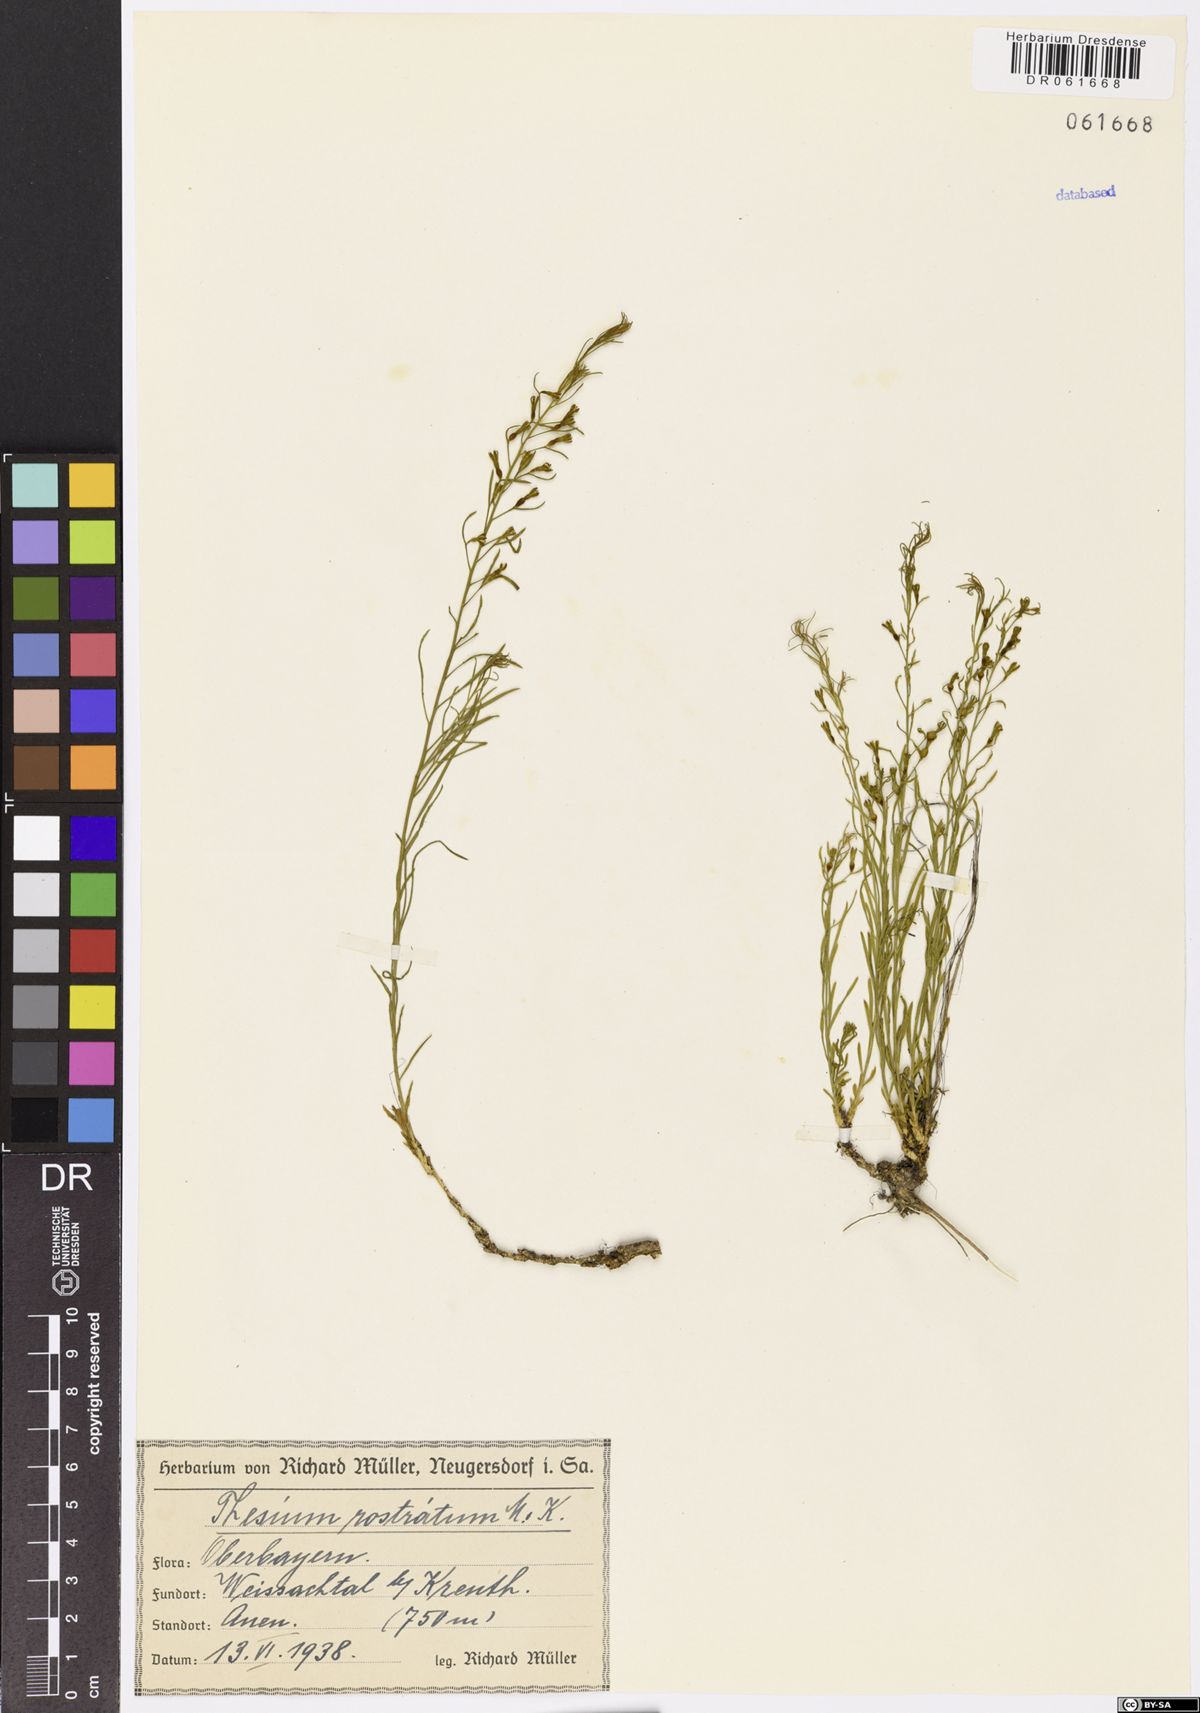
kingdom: Plantae
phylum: Tracheophyta
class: Magnoliopsida
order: Santalales
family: Thesiaceae
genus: Thesium
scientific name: Thesium rostratum
